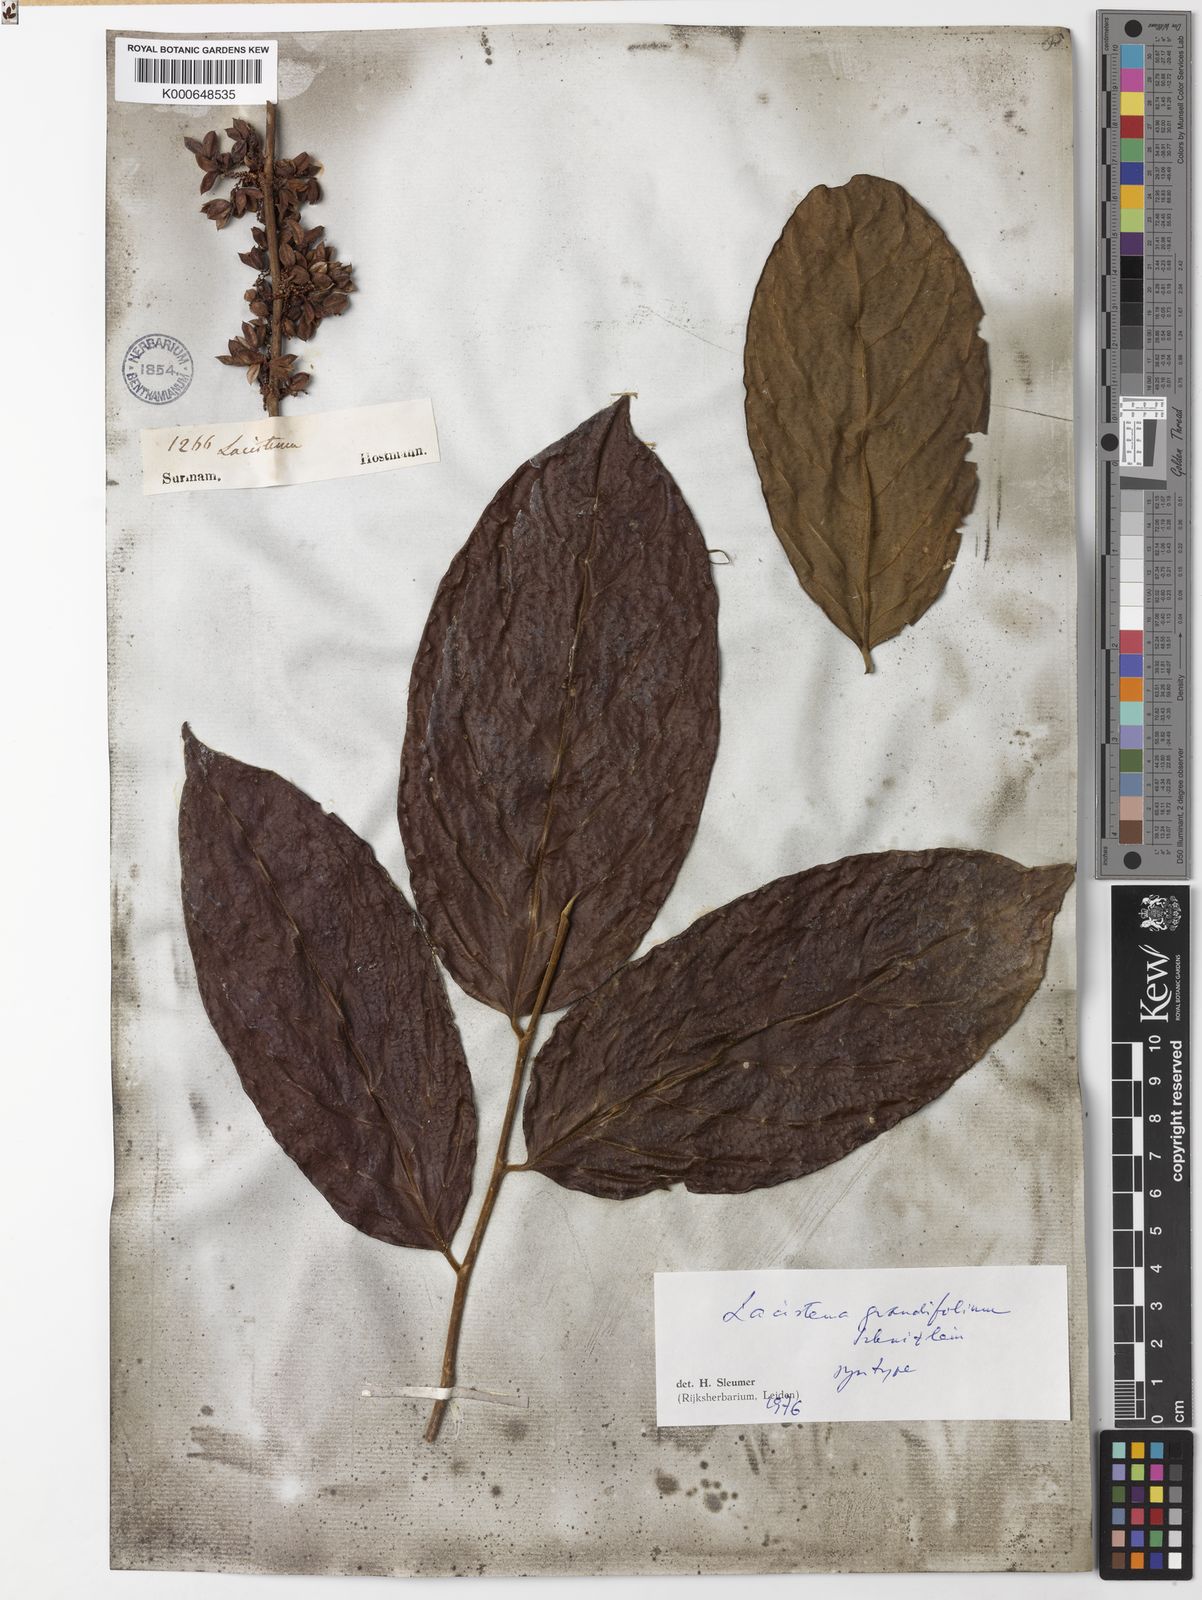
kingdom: Plantae
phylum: Tracheophyta
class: Magnoliopsida
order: Malpighiales
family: Lacistemataceae
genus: Lacistema
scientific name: Lacistema grandifolium
